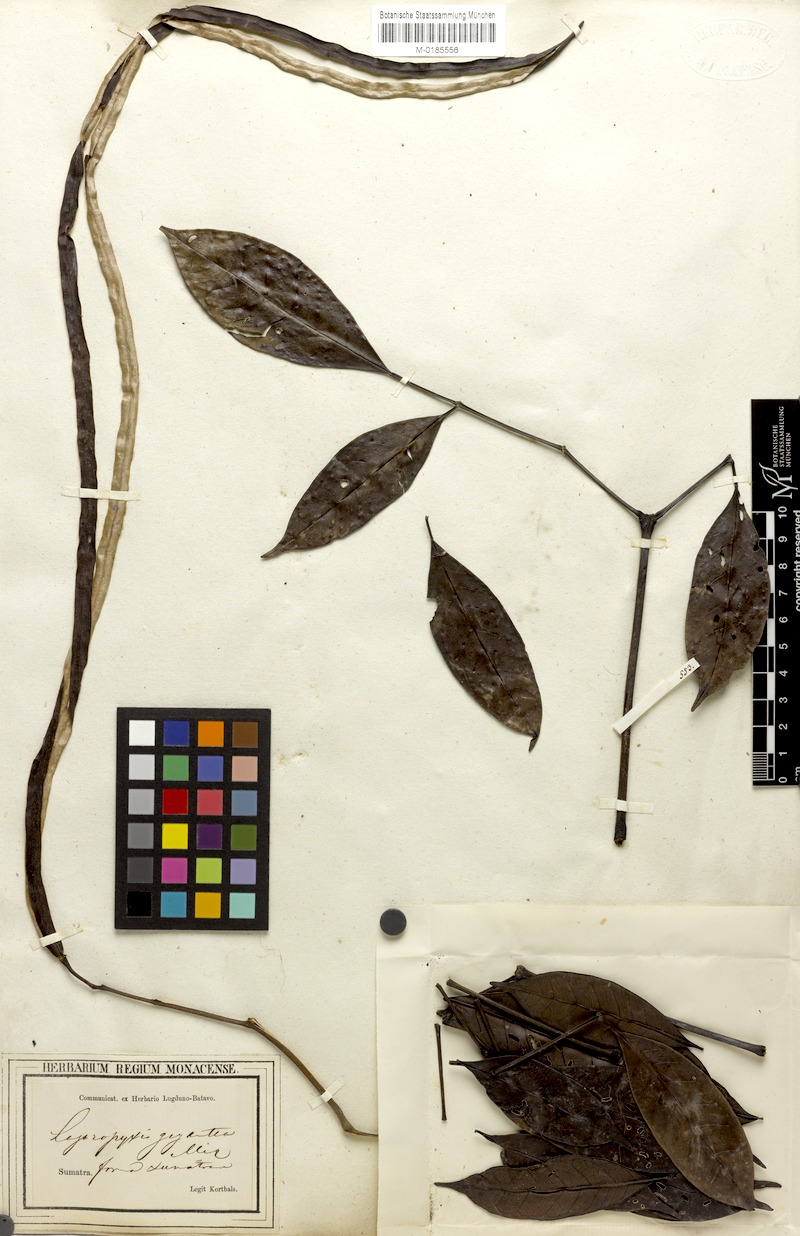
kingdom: Plantae
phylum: Tracheophyta
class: Magnoliopsida
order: Lamiales
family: Bignoniaceae
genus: Radermachera
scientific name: Radermachera gigantea
